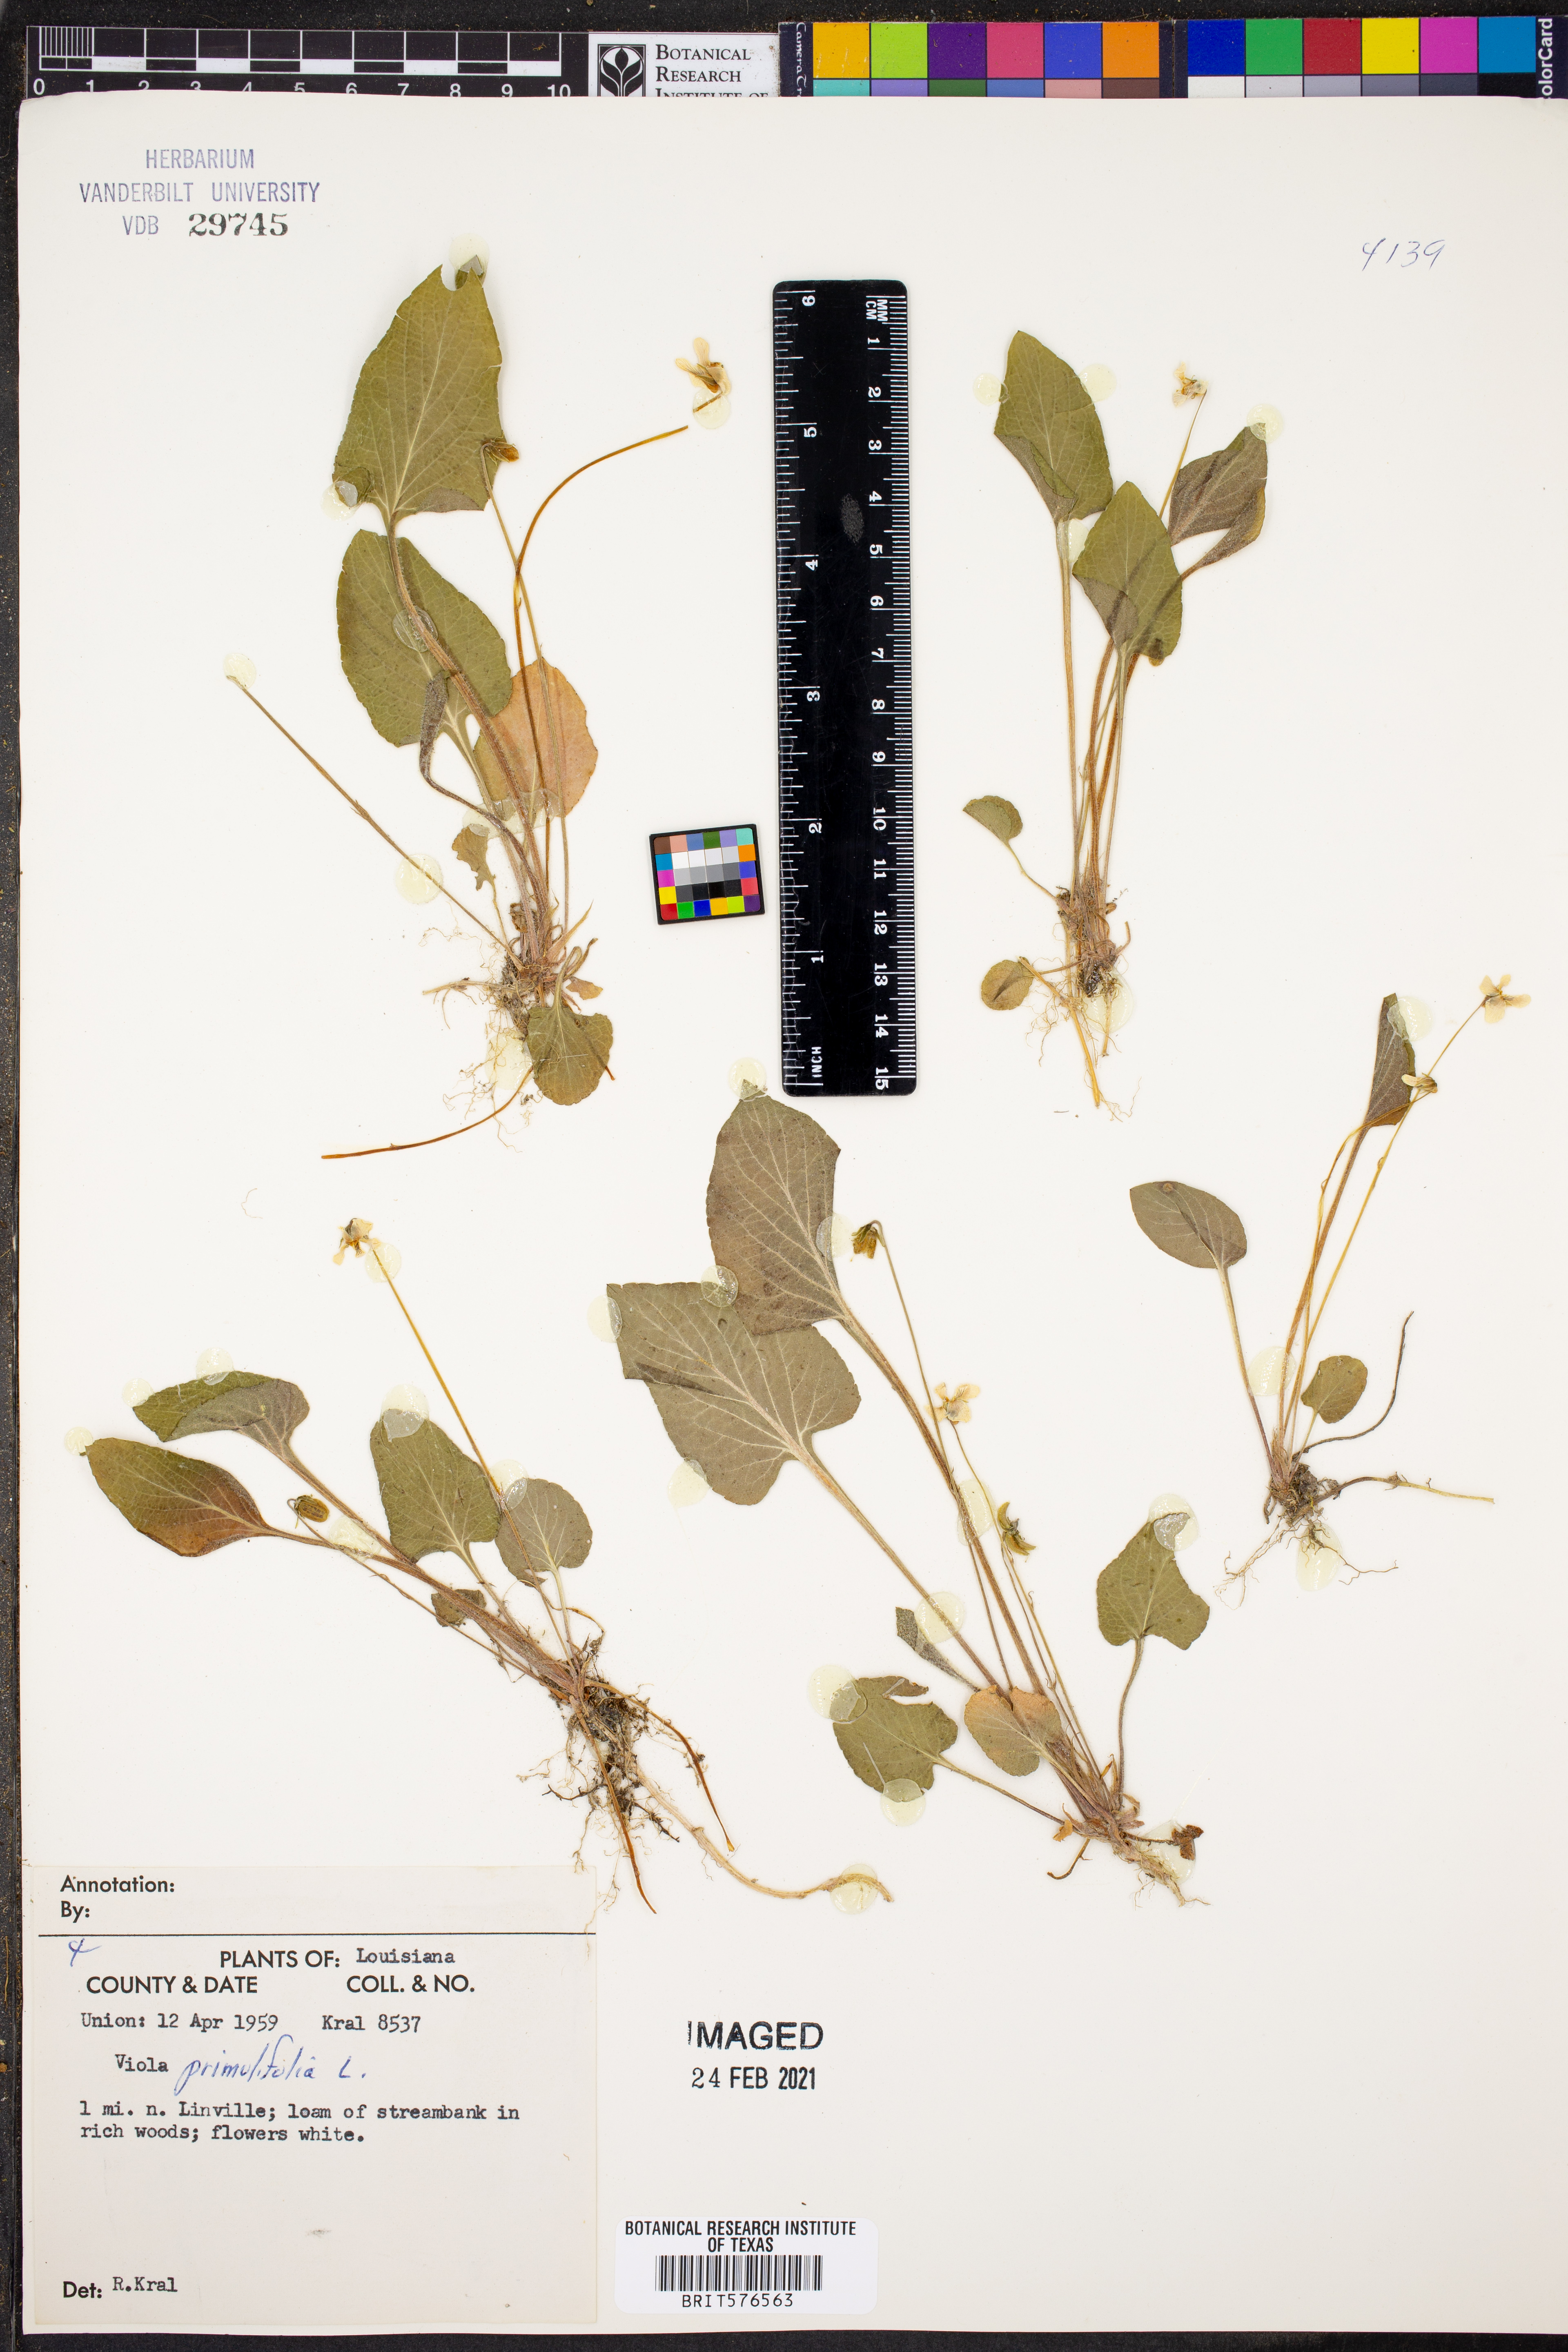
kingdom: Plantae
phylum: Tracheophyta
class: Magnoliopsida
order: Malpighiales
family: Violaceae
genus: Viola
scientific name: Viola primulifolia
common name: Primrose-leaf violet
